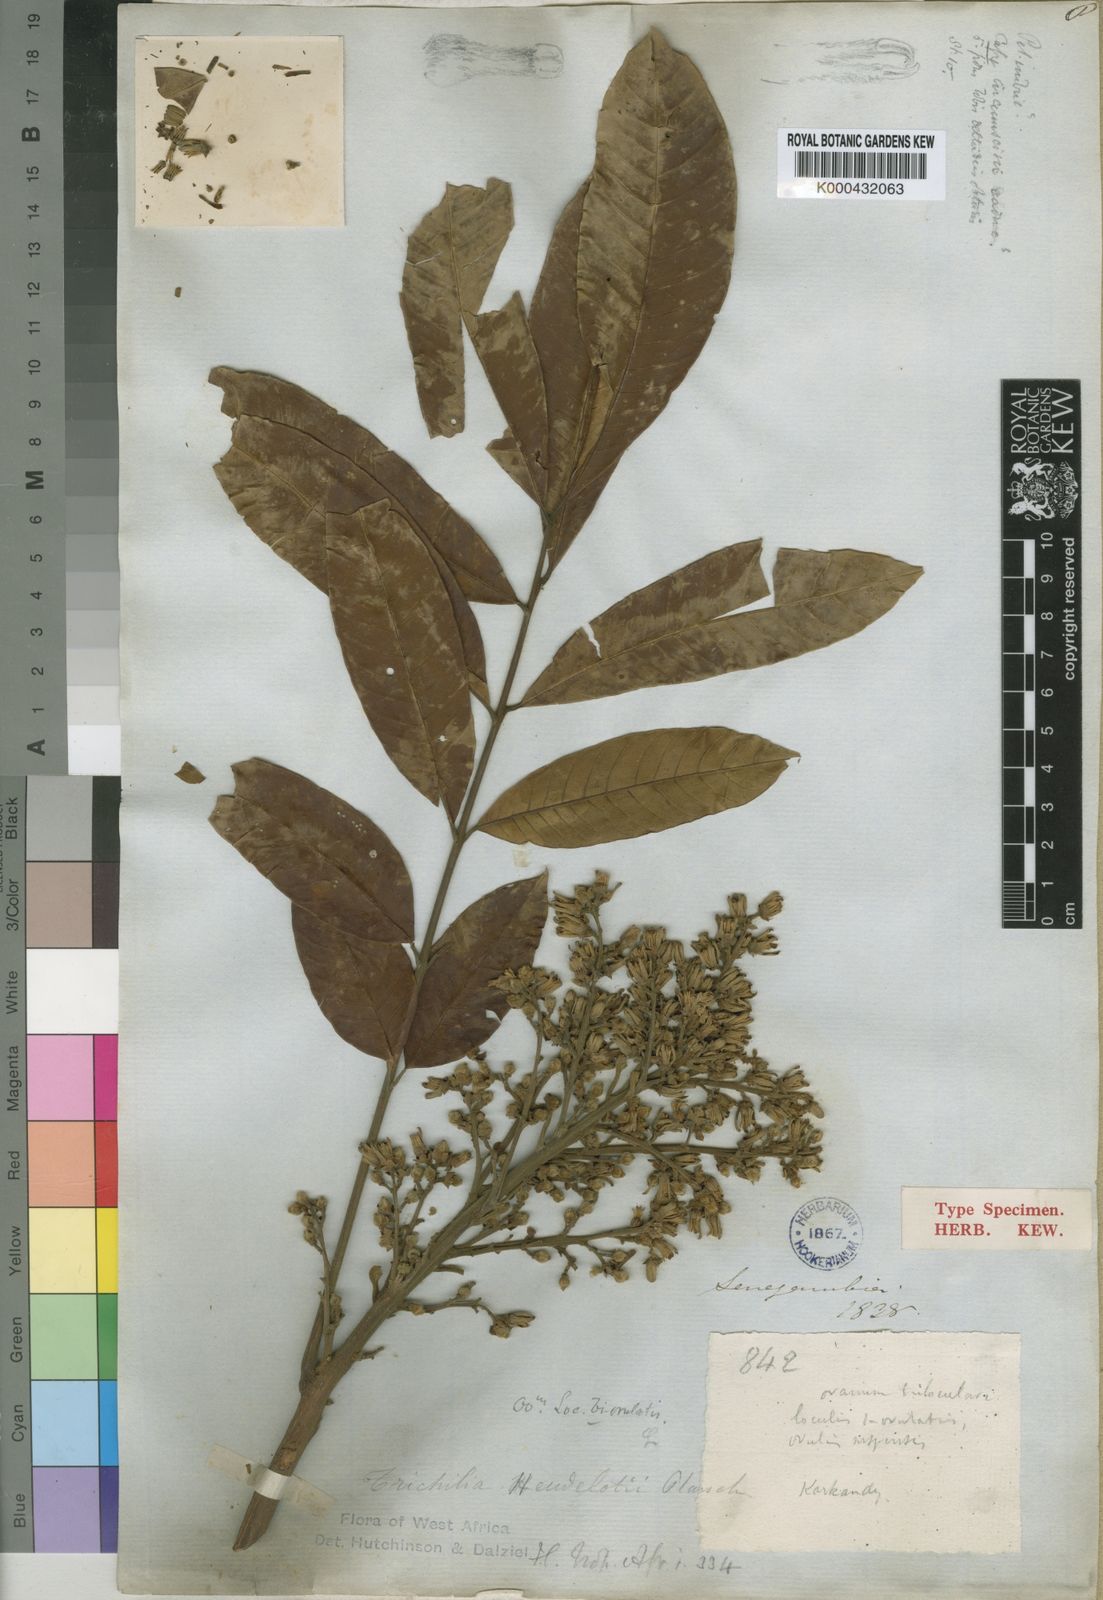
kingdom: Plantae
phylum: Tracheophyta
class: Magnoliopsida
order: Sapindales
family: Meliaceae
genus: Trichilia
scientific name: Trichilia monadelpha
